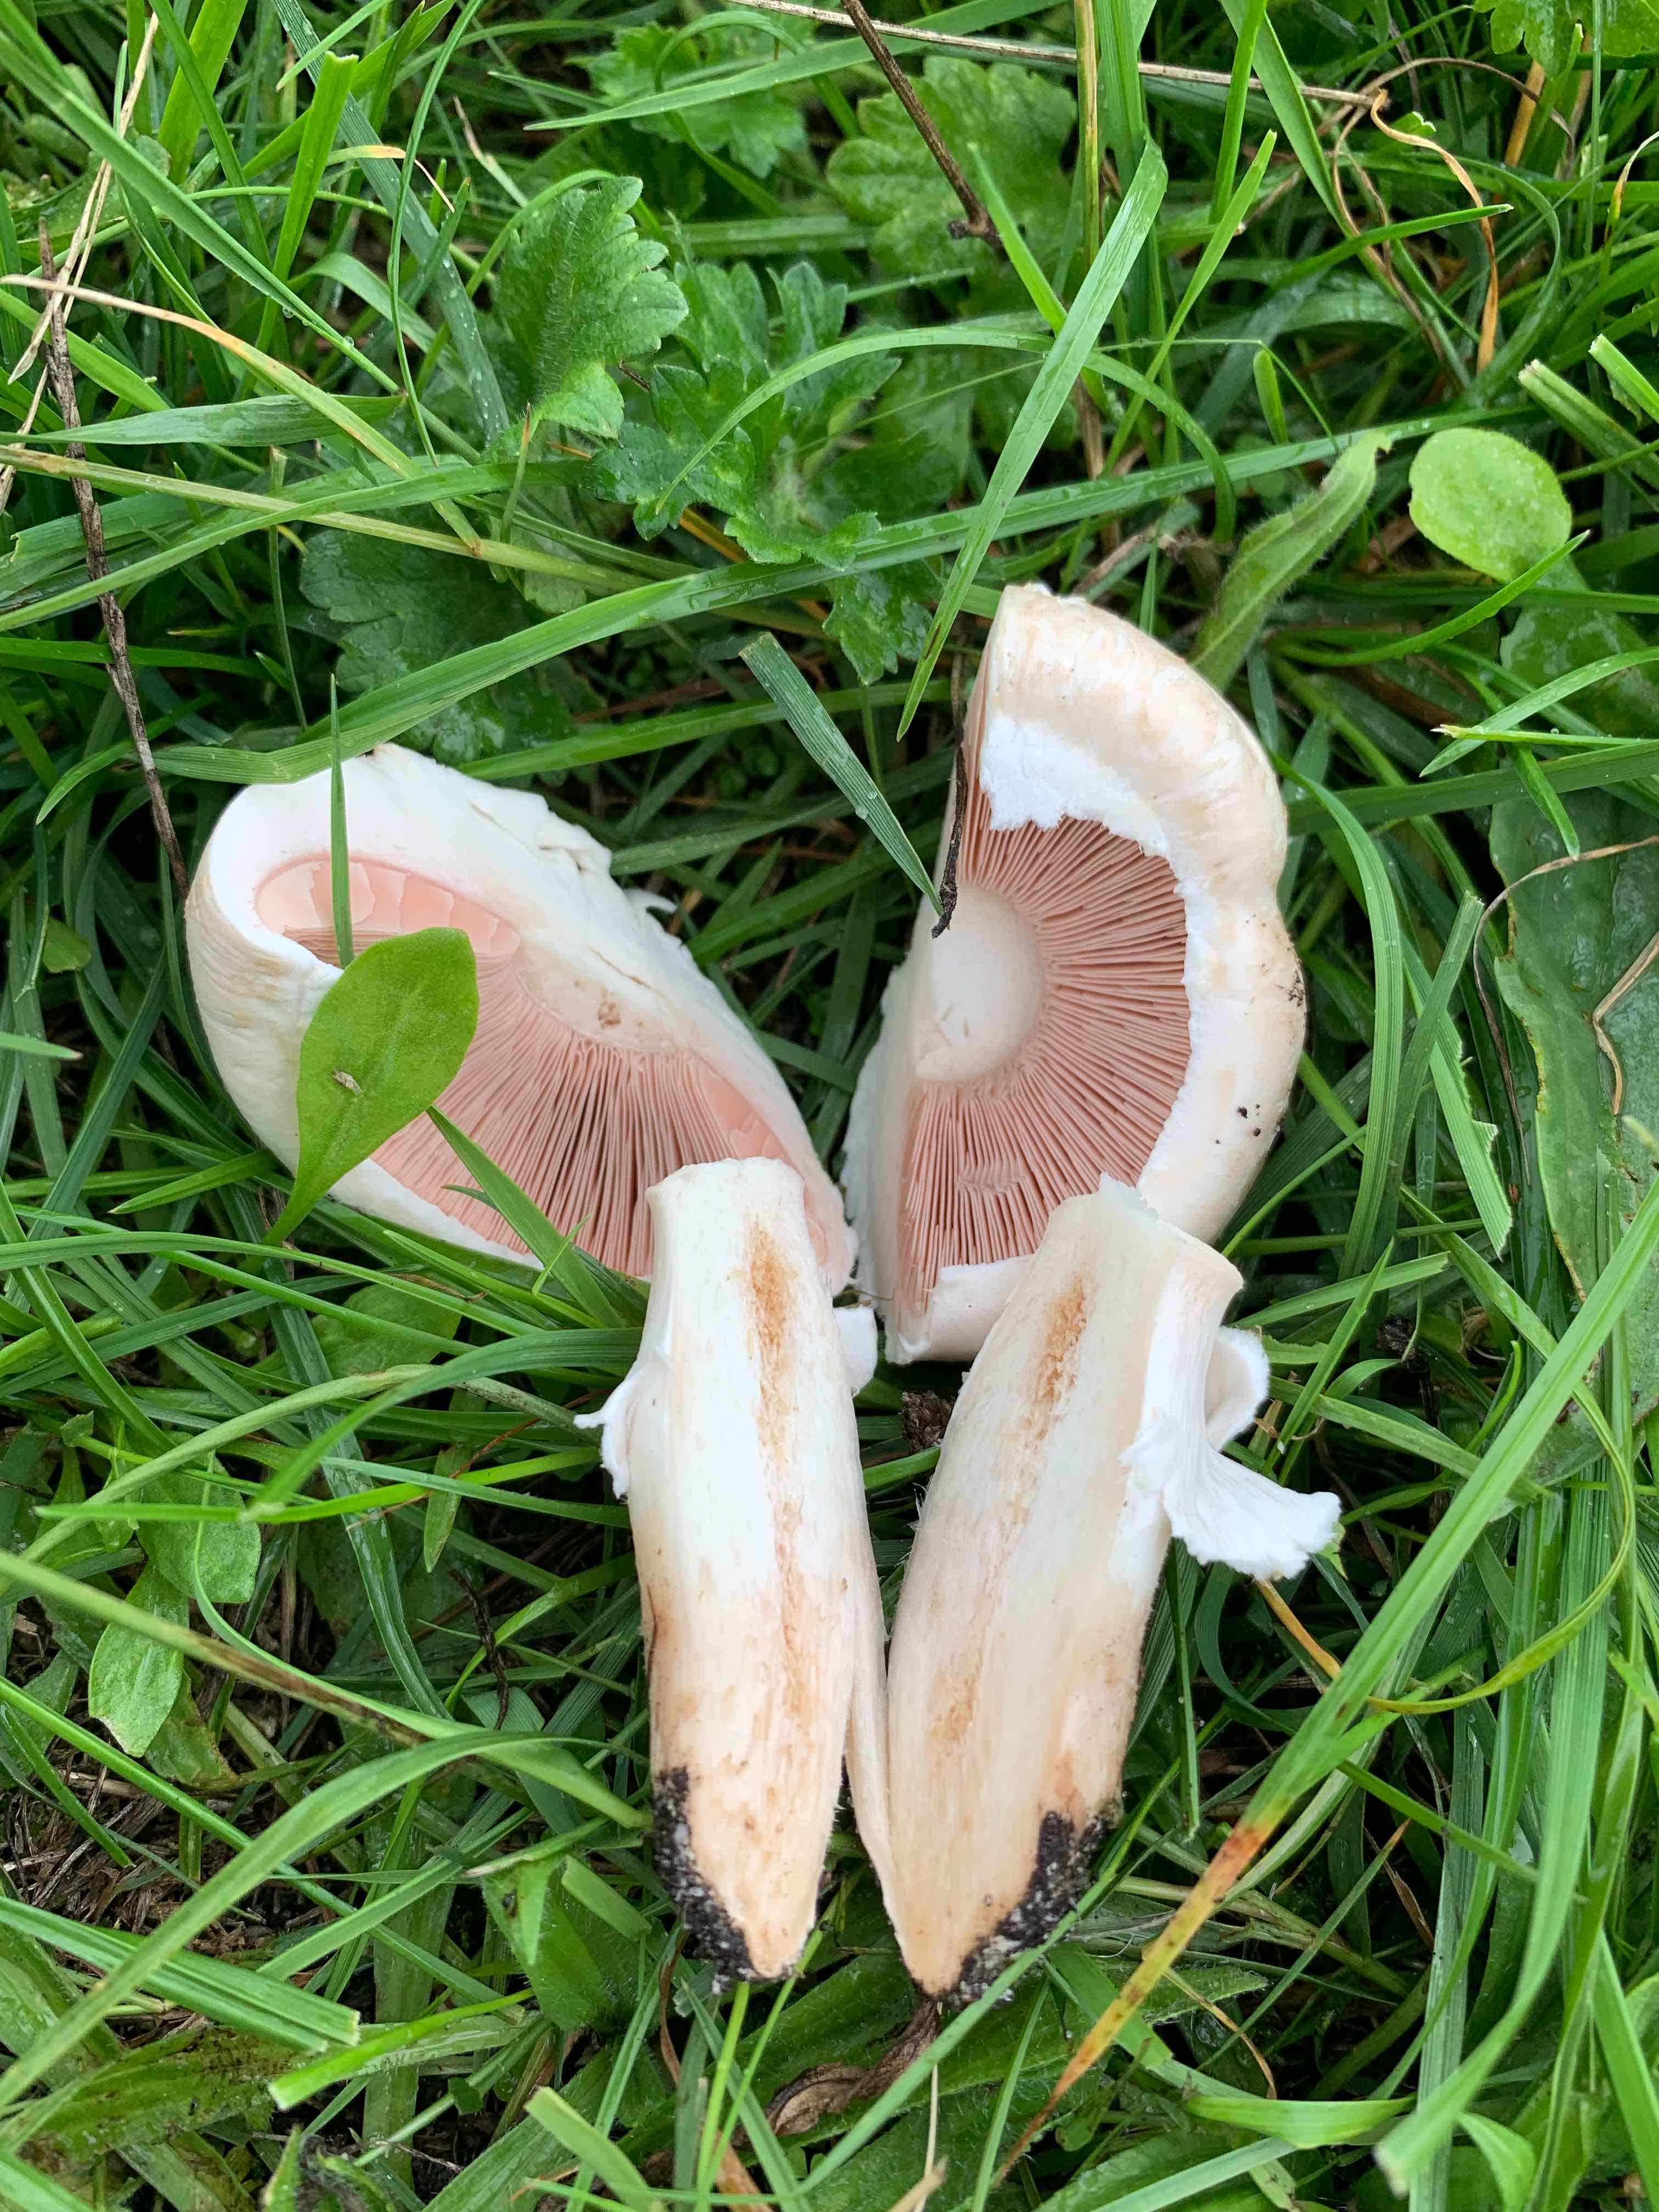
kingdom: Fungi
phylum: Basidiomycota
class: Agaricomycetes
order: Agaricales
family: Agaricaceae
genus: Agaricus
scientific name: Agaricus litoralis
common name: kyst-champignon
